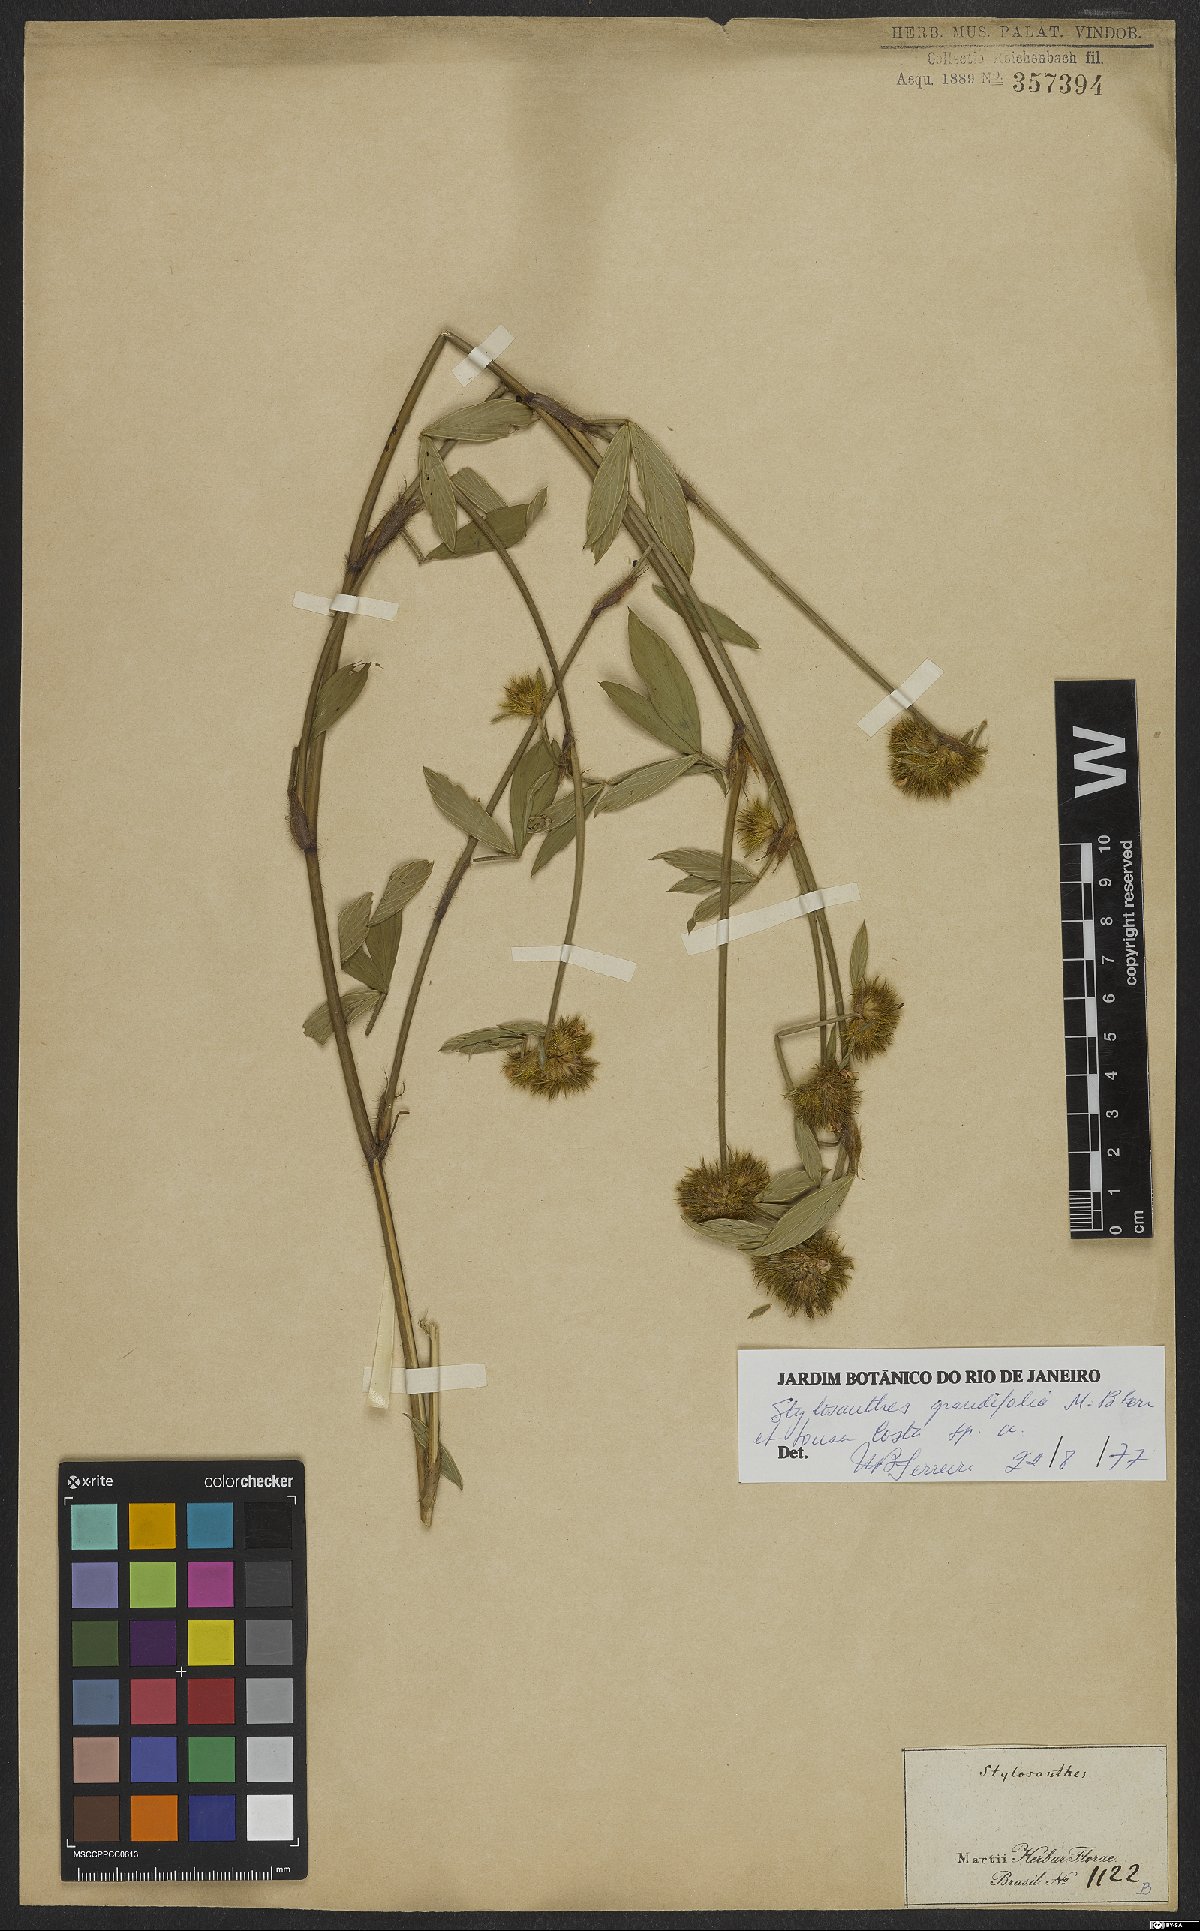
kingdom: Plantae
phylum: Tracheophyta
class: Magnoliopsida
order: Fabales
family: Fabaceae
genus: Stylosanthes
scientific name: Stylosanthes guianensis
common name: Pencil flower
